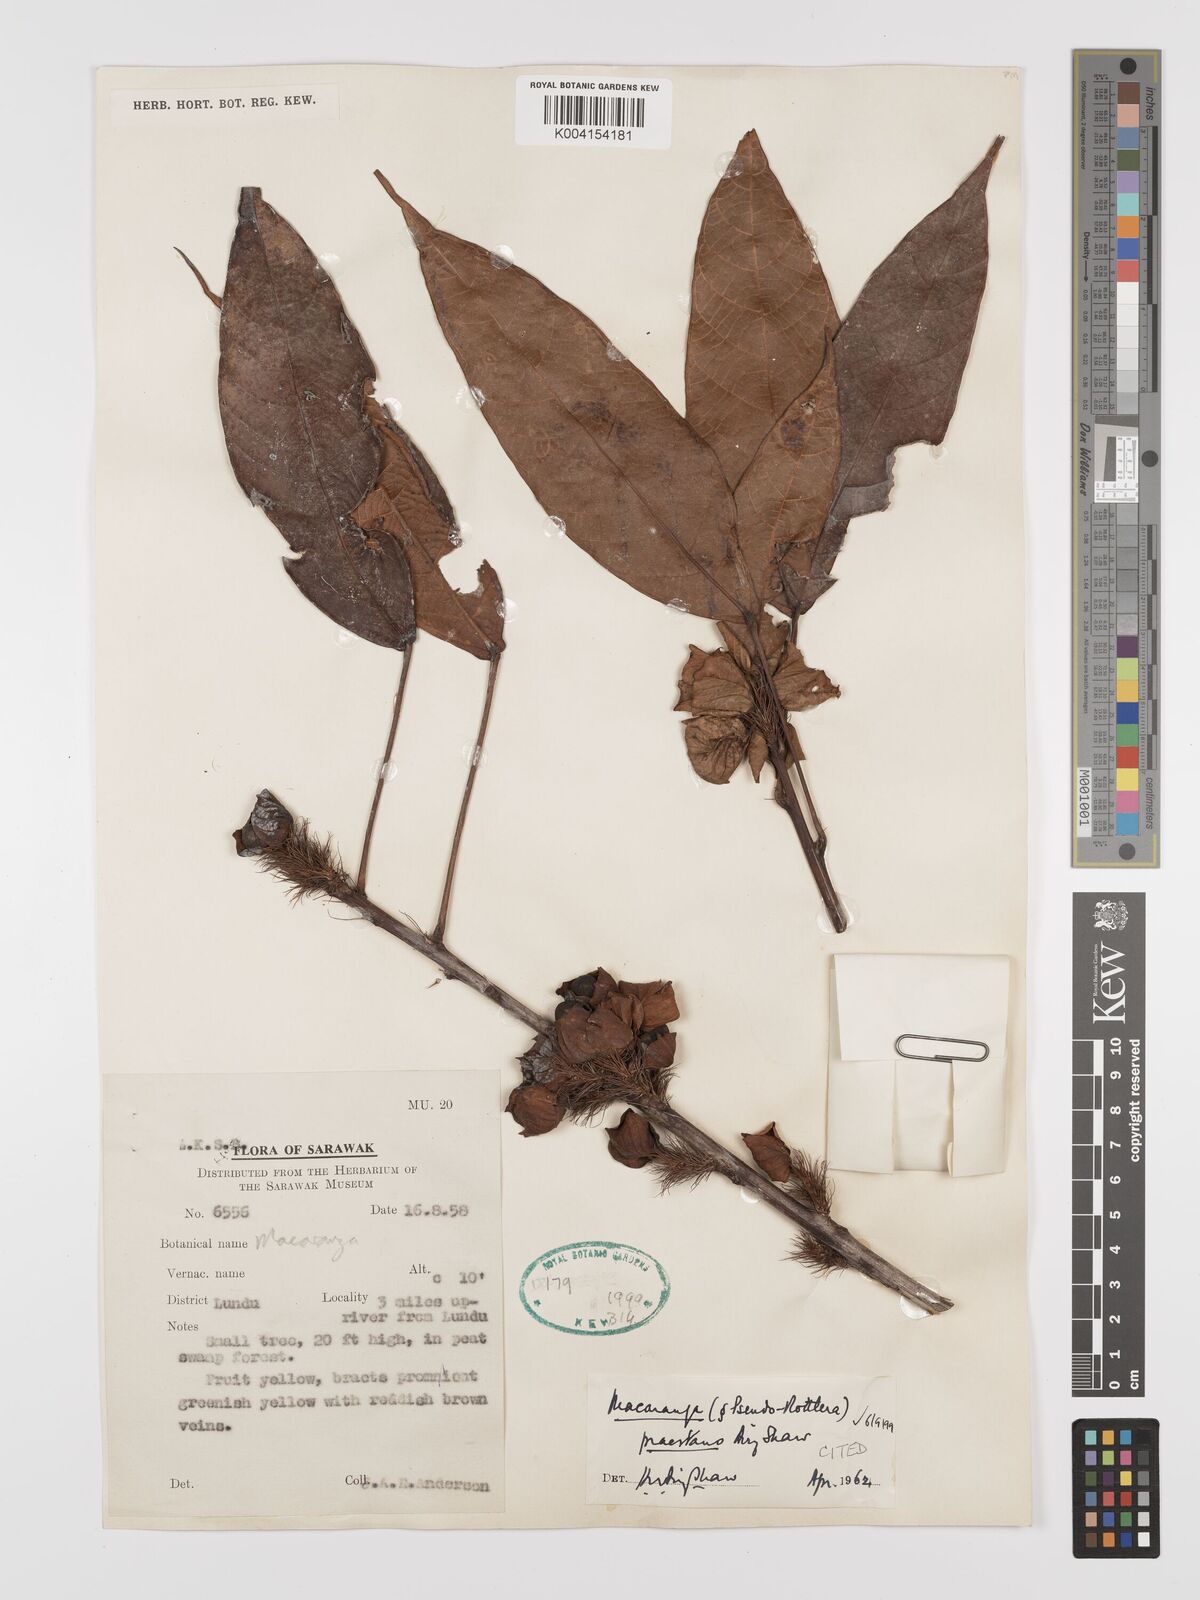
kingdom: Plantae
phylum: Tracheophyta
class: Magnoliopsida
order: Malpighiales
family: Euphorbiaceae
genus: Macaranga
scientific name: Macaranga praestans
